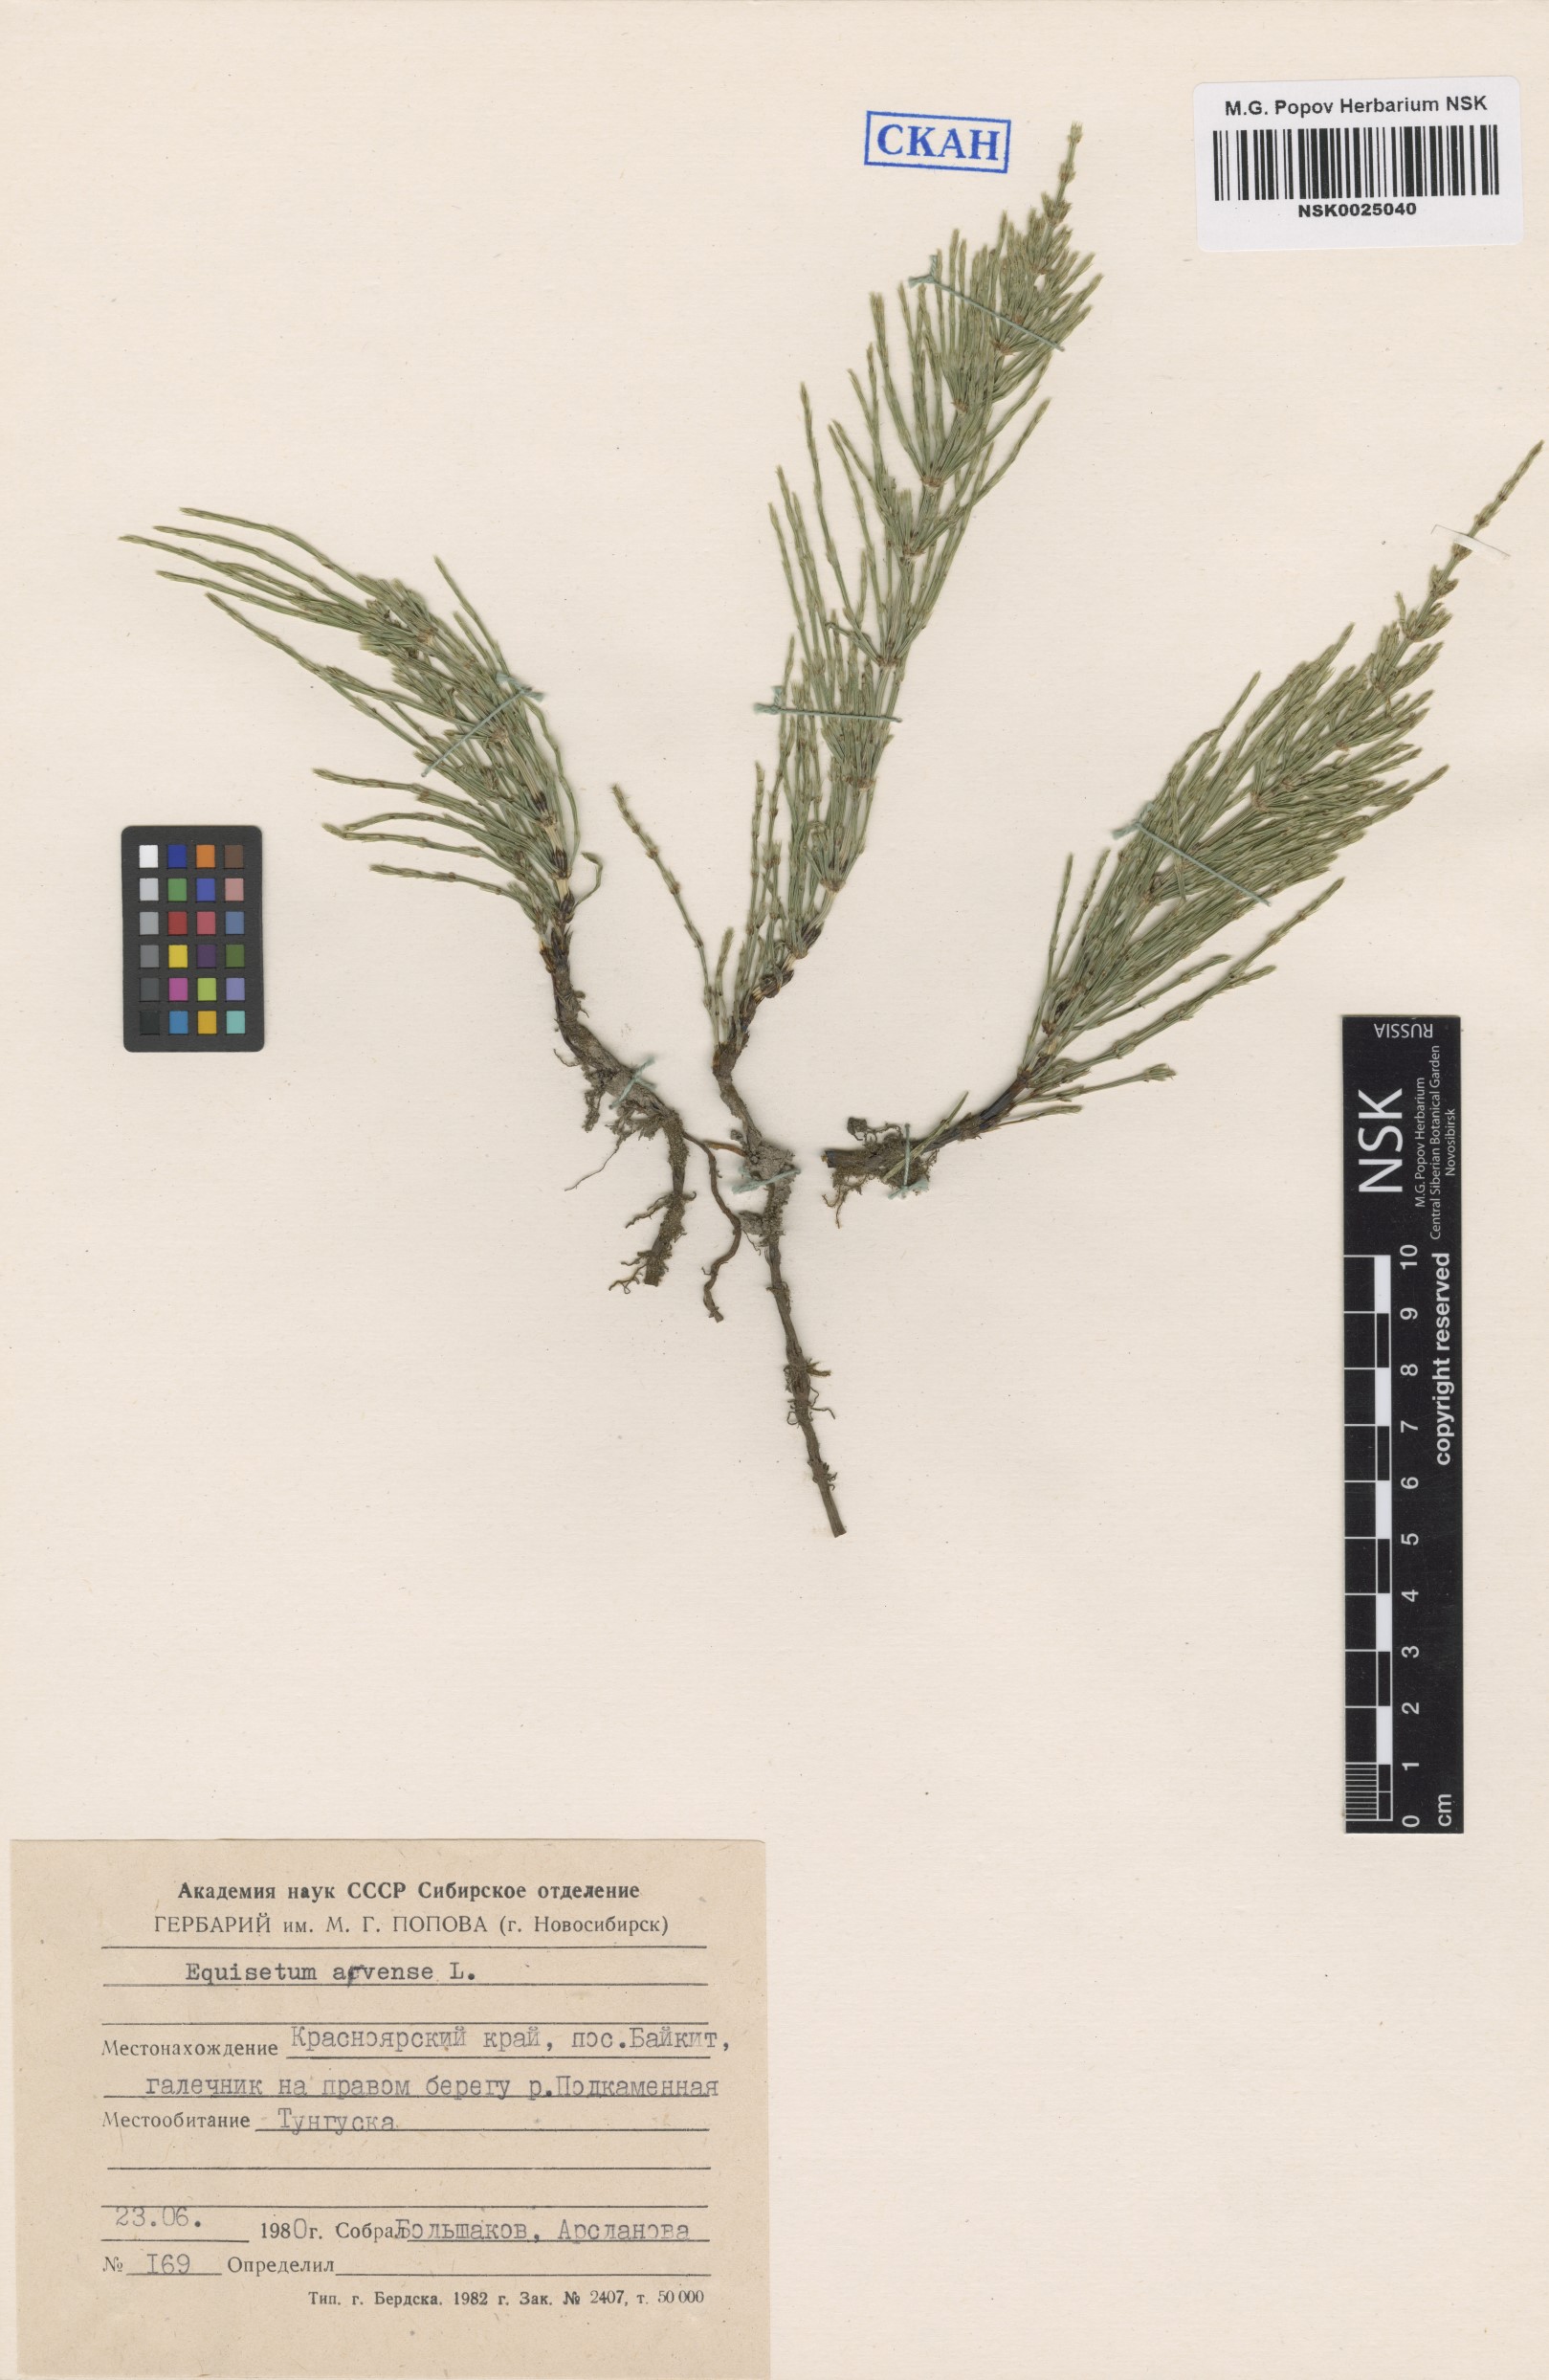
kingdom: Plantae
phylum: Tracheophyta
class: Polypodiopsida
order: Equisetales
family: Equisetaceae
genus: Equisetum
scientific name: Equisetum arvense
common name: Field horsetail
